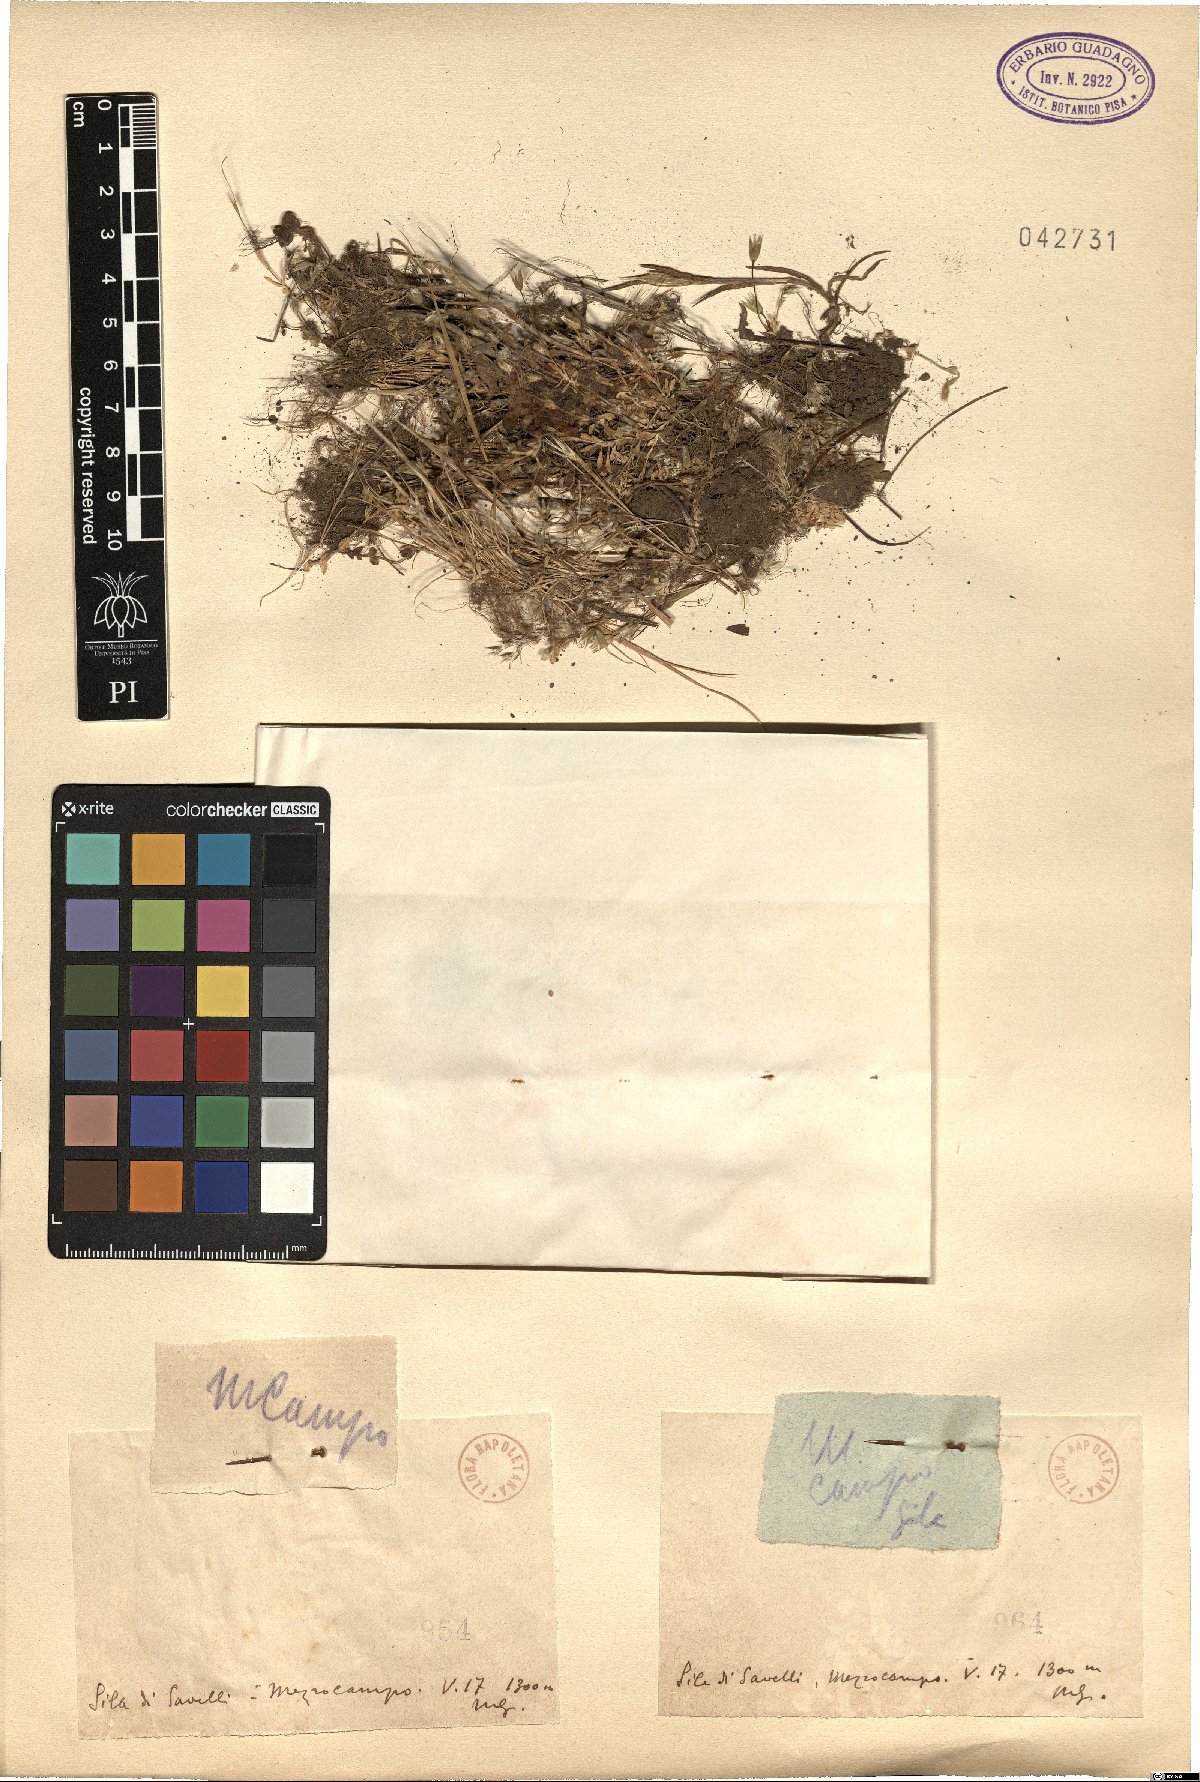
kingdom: Plantae
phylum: Tracheophyta
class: Magnoliopsida
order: Caryophyllales
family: Caryophyllaceae
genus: Cerastium
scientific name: Cerastium
